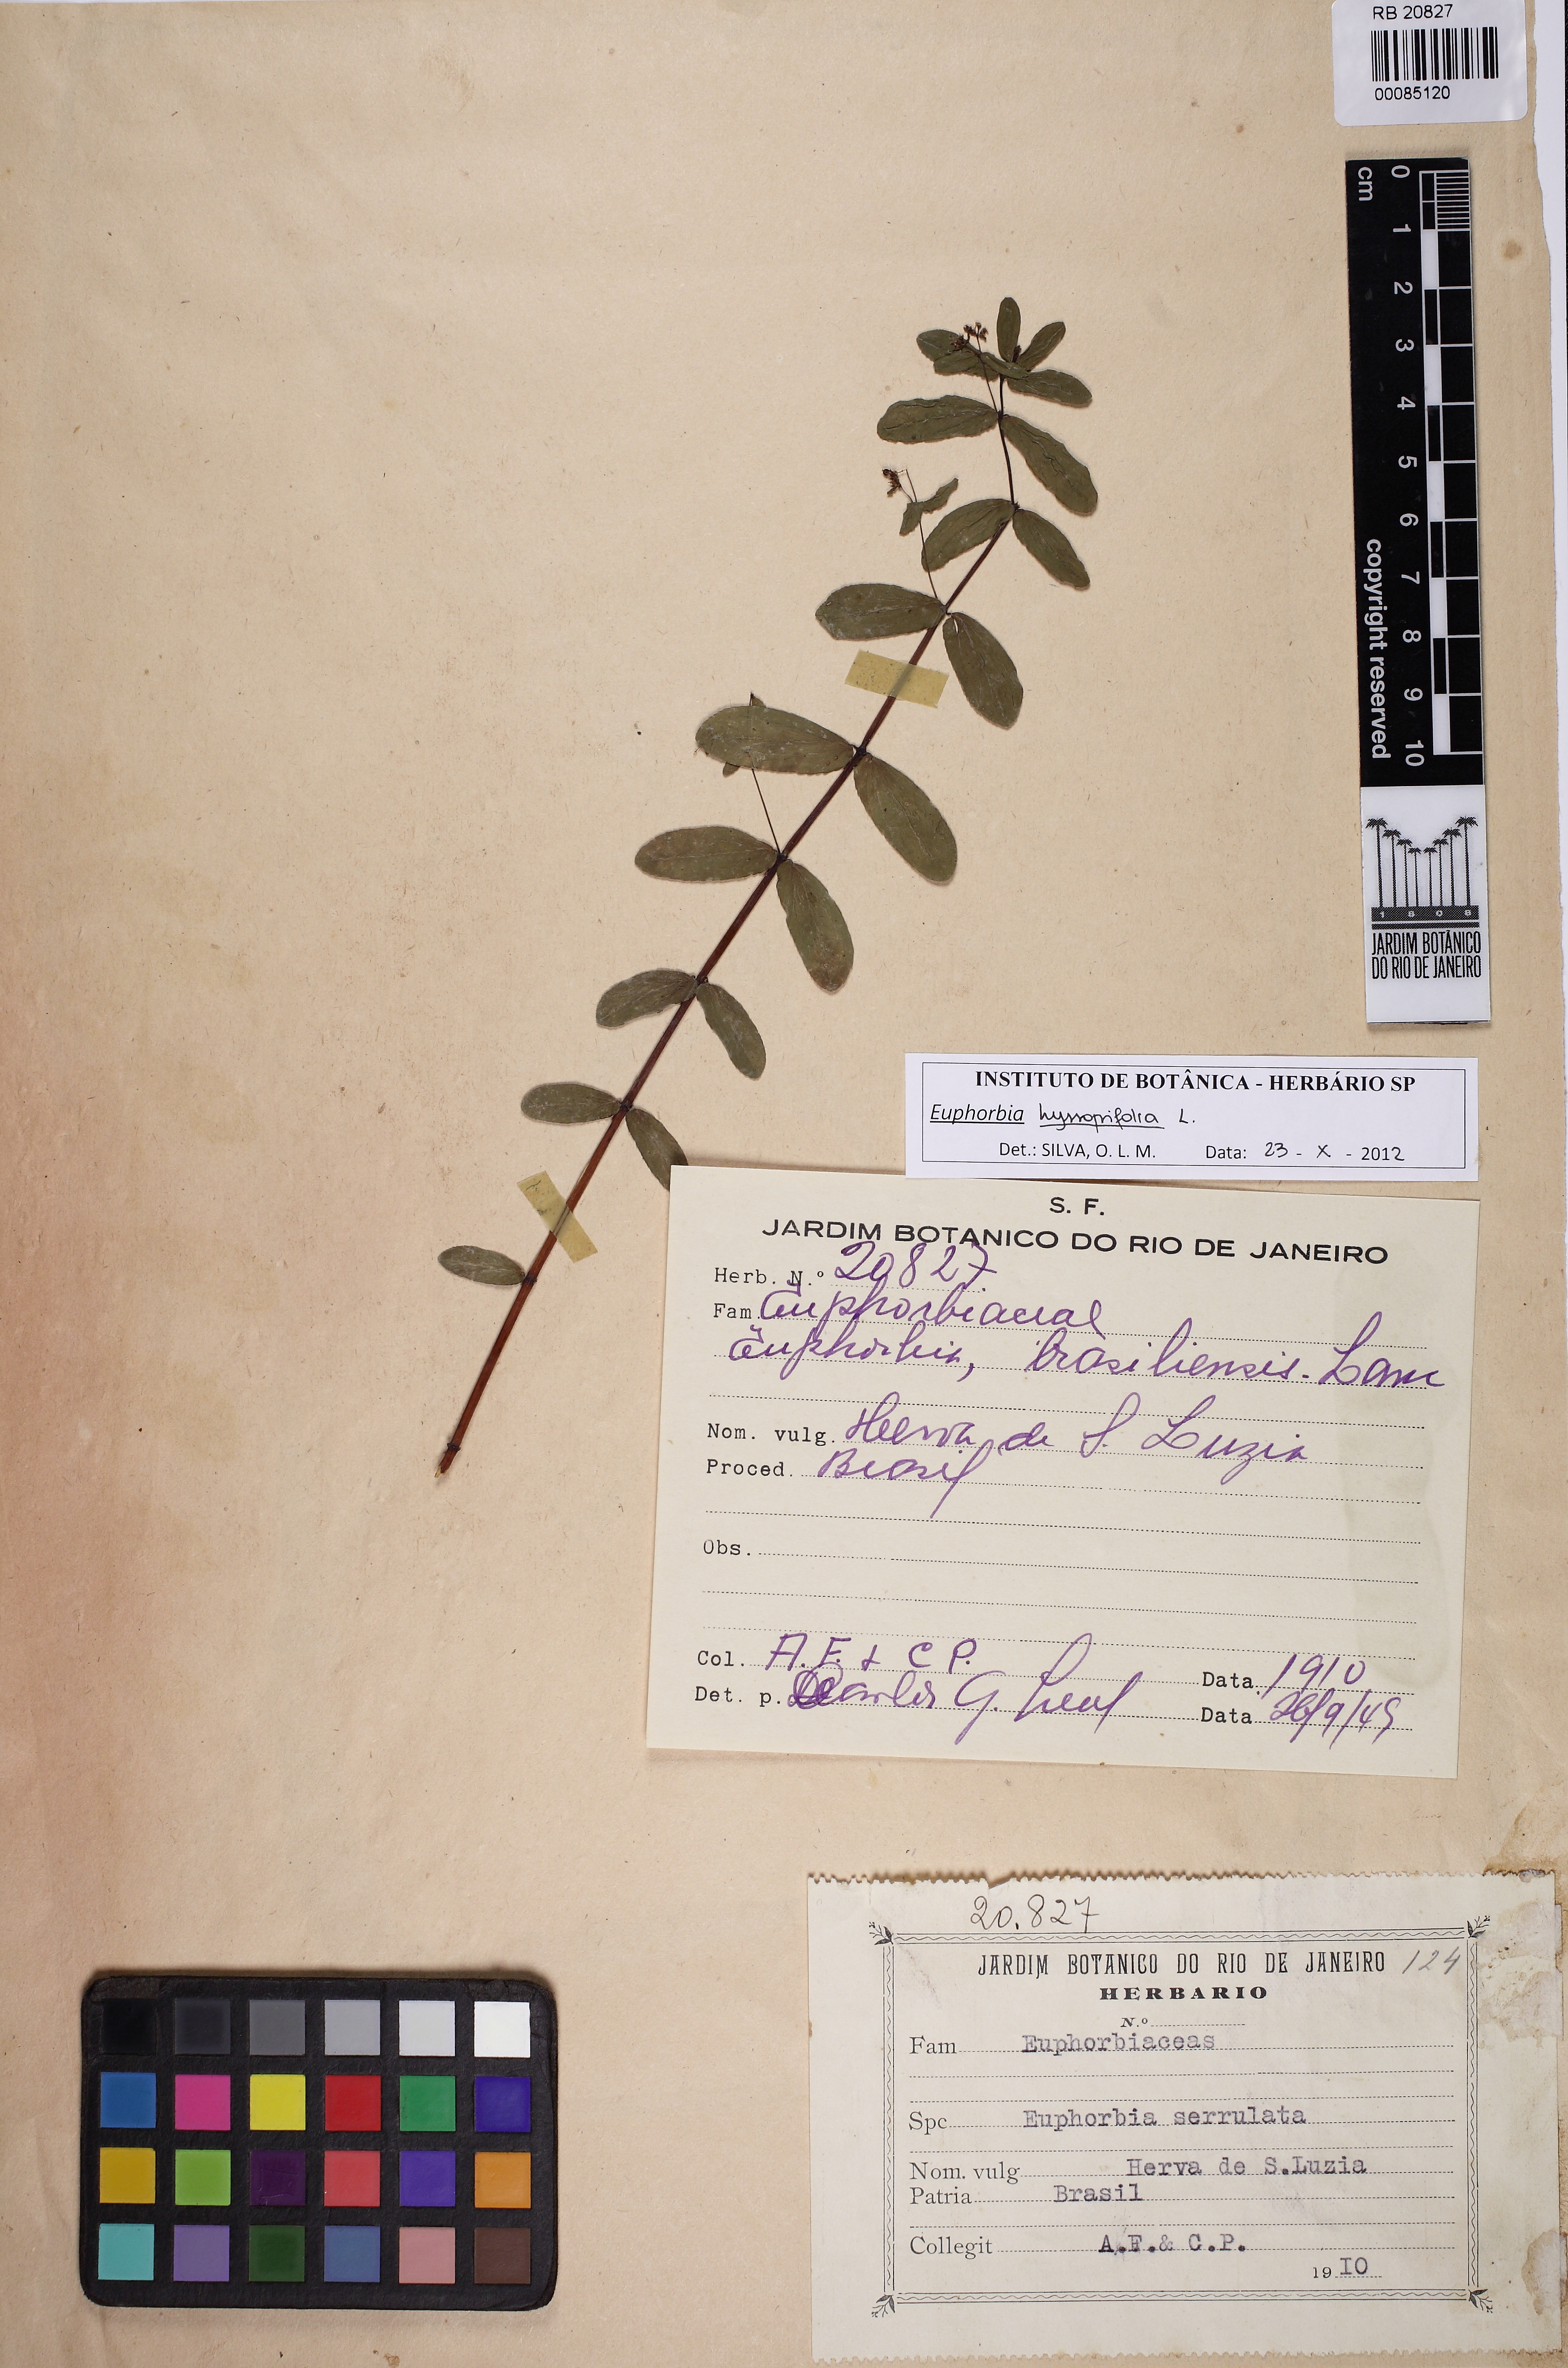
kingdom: Plantae
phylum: Tracheophyta
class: Magnoliopsida
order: Malpighiales
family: Euphorbiaceae
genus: Euphorbia
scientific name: Euphorbia hyssopifolia
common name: Hyssopleaf sandmat
